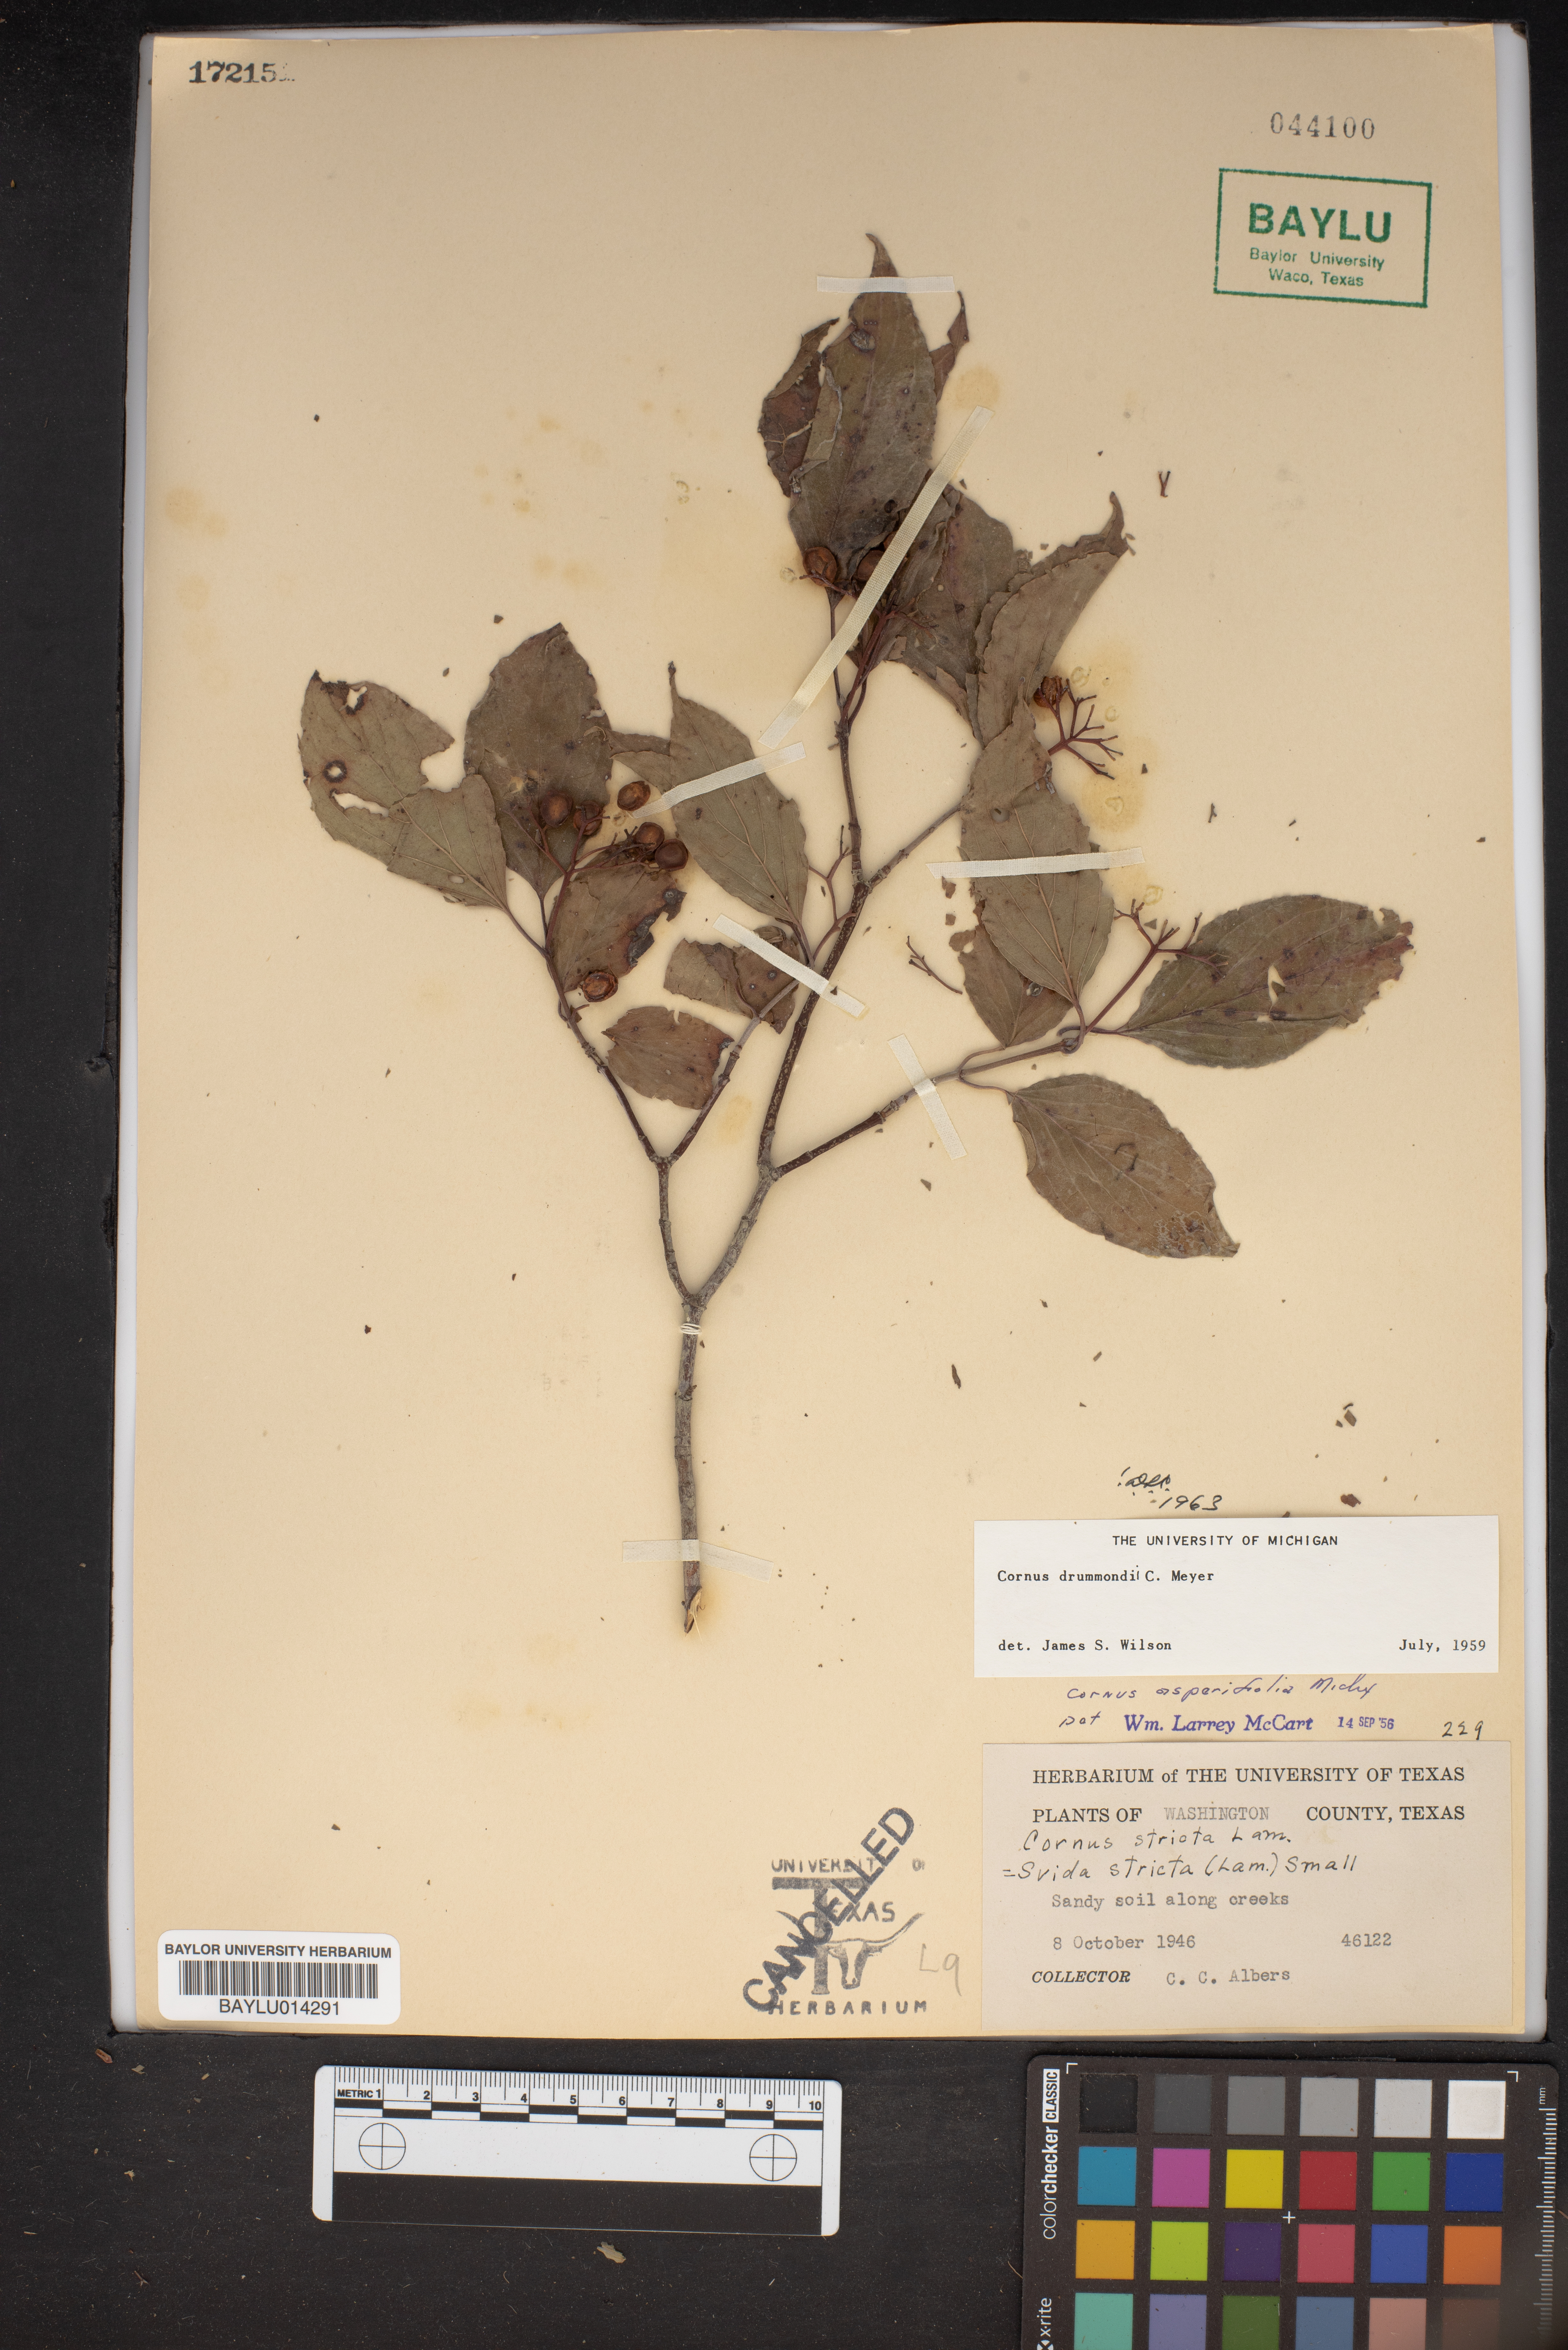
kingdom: Plantae
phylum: Tracheophyta
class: Magnoliopsida
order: Cornales
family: Cornaceae
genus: Cornus
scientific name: Cornus drummondii
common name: Rough-leaf dogwood
